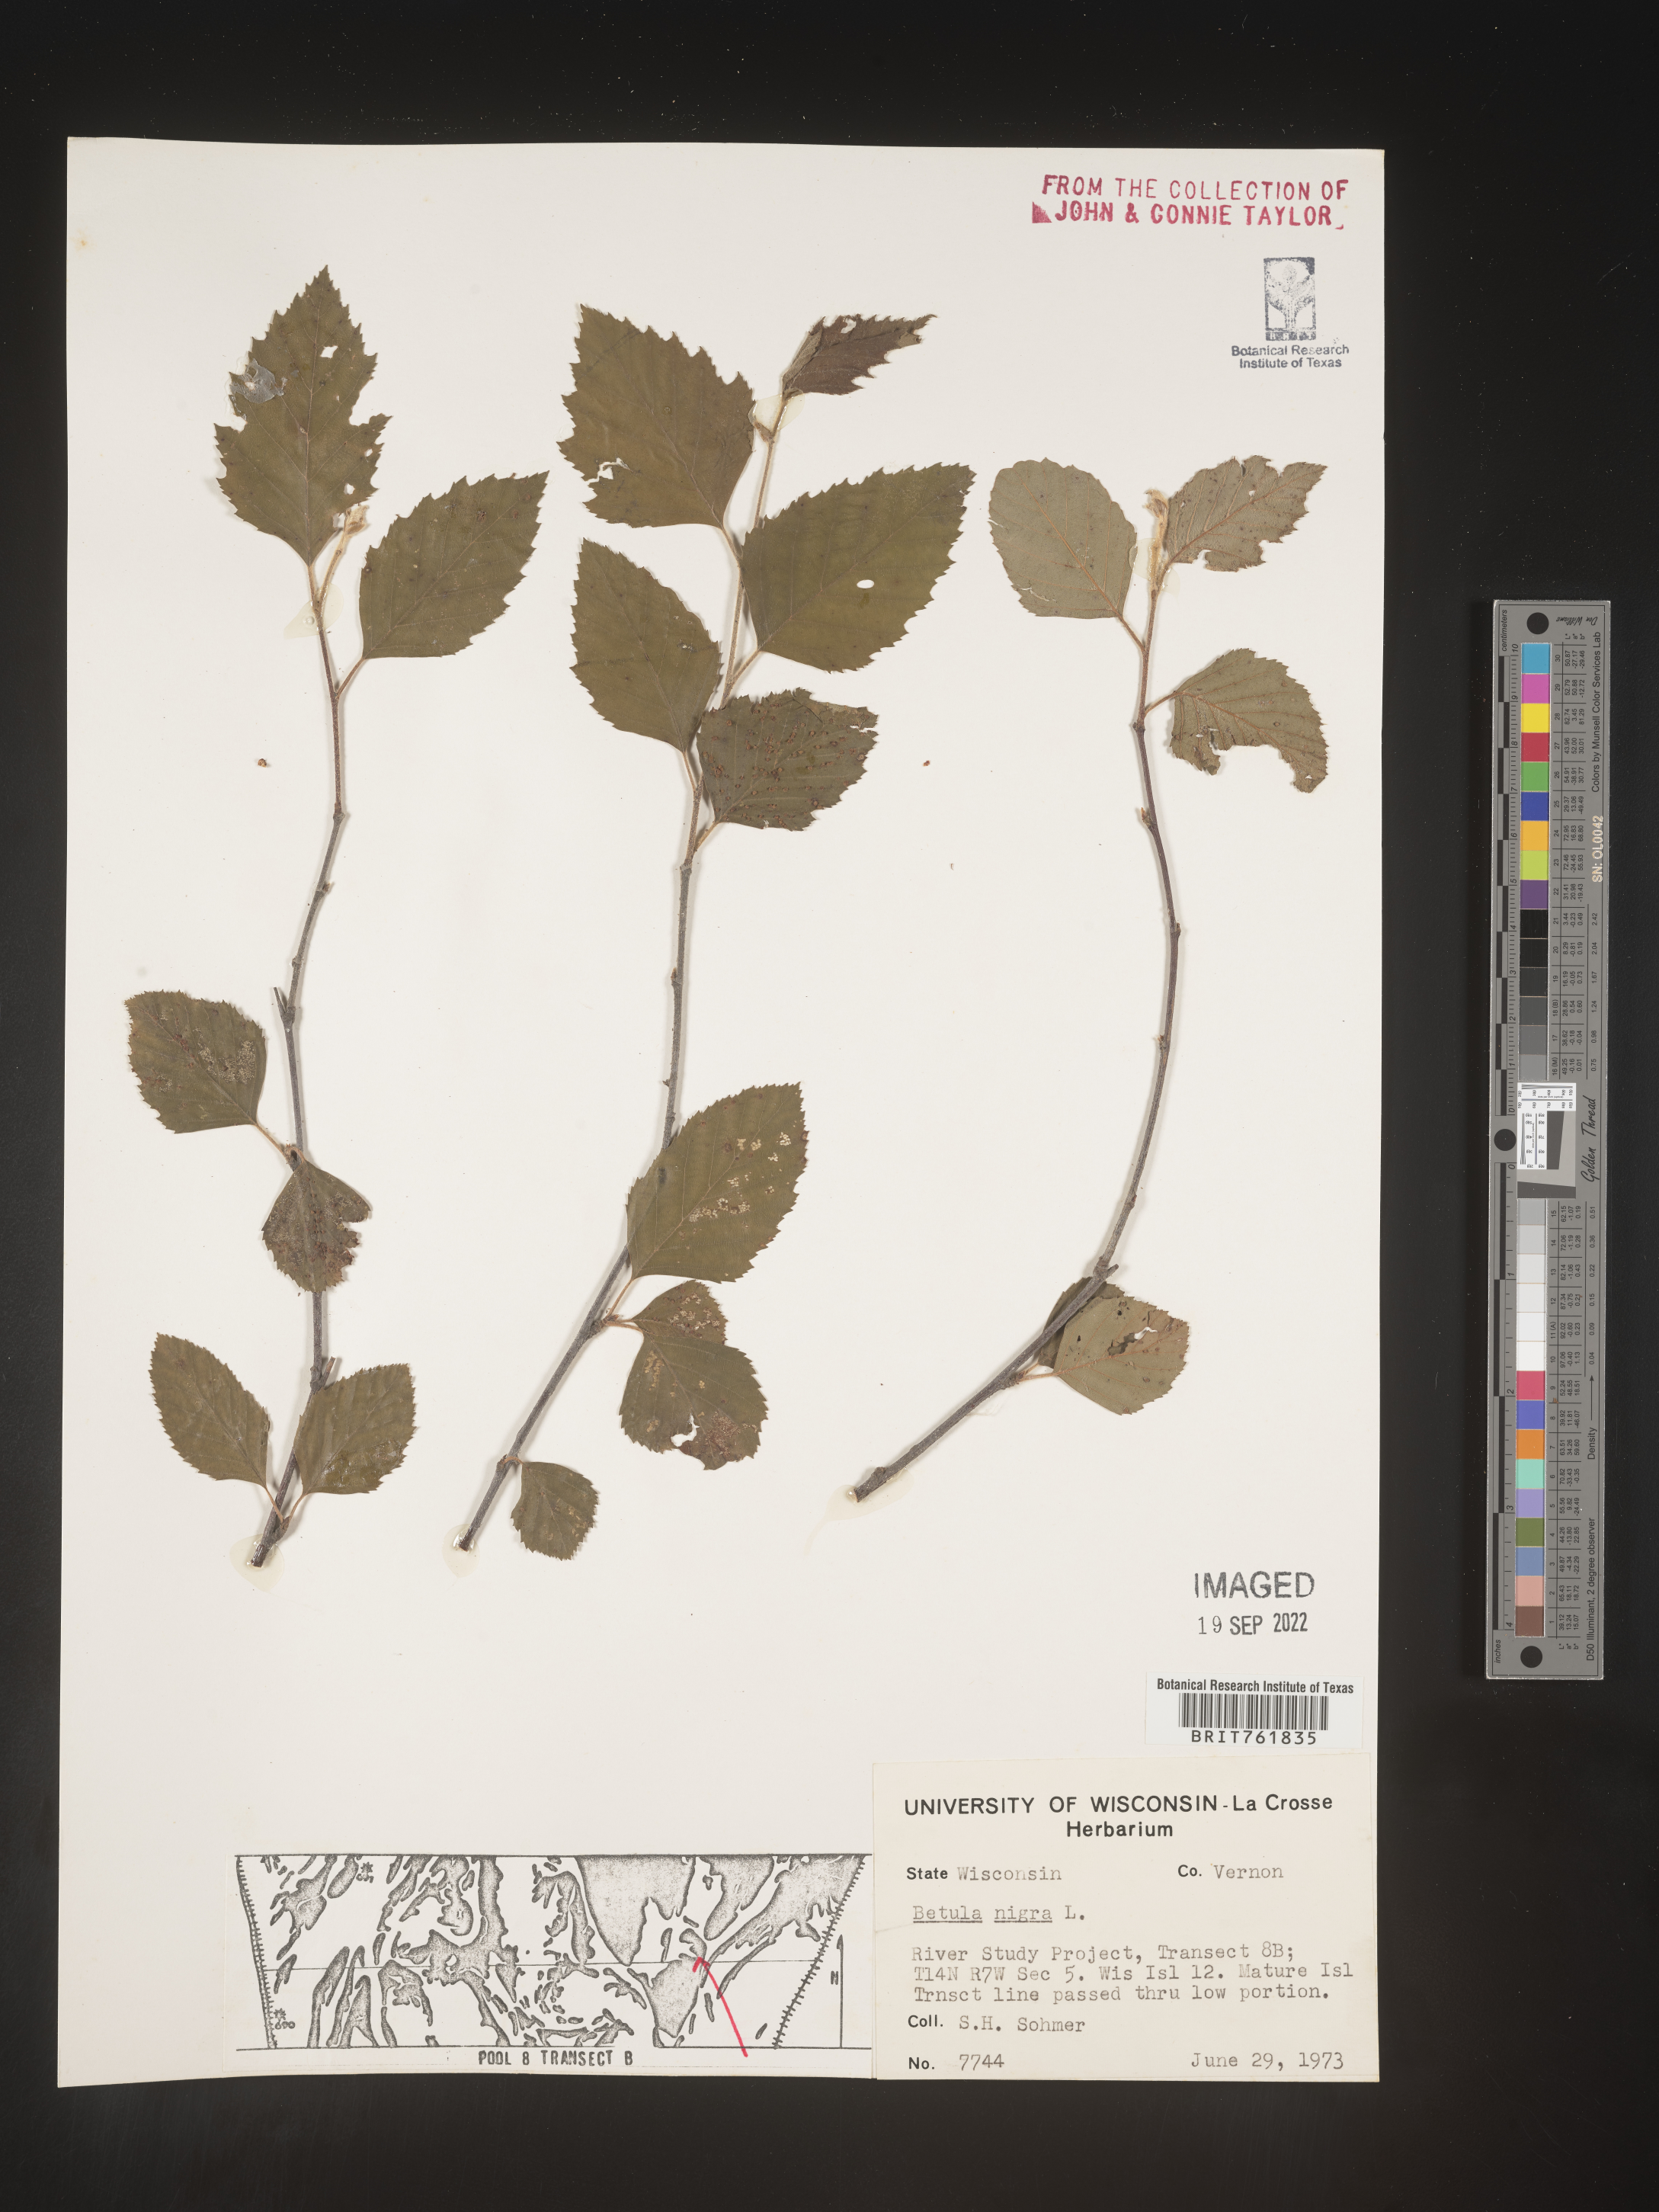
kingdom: Plantae
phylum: Tracheophyta
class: Magnoliopsida
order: Fagales
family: Betulaceae
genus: Betula
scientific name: Betula nigra
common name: Black birch
